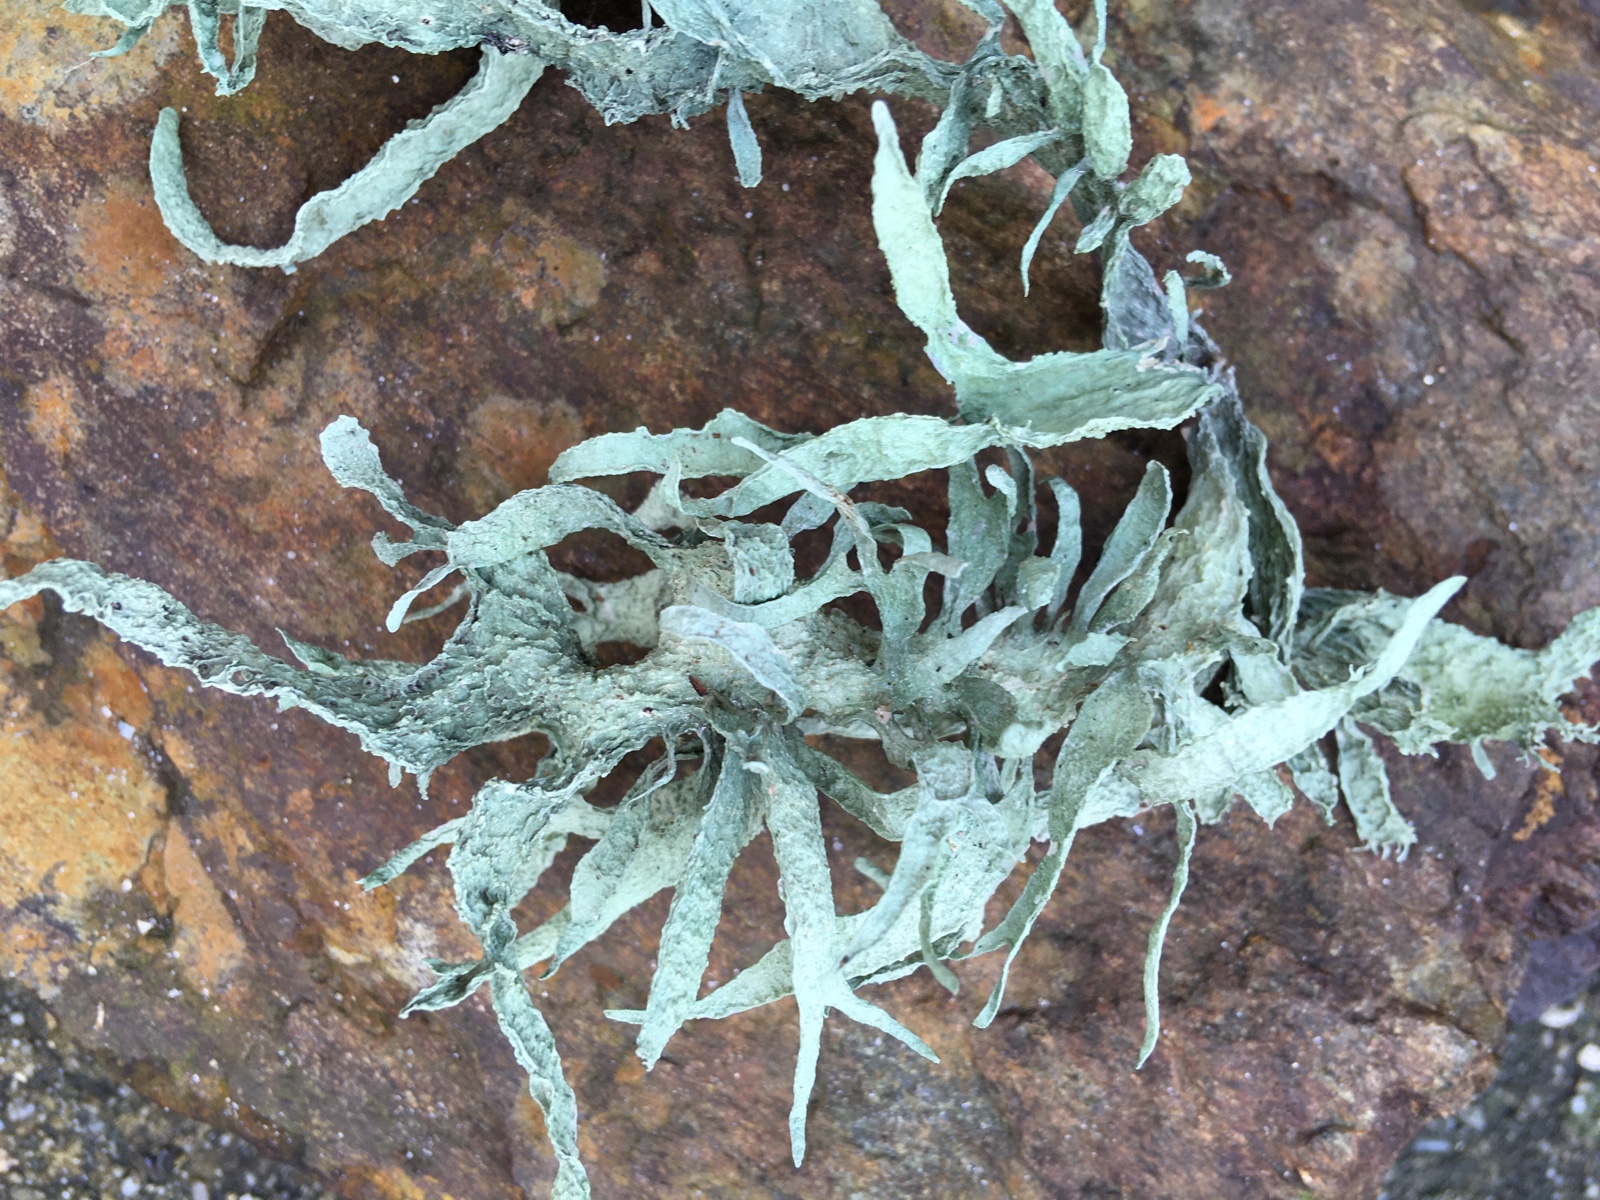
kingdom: Fungi
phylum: Ascomycota
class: Lecanoromycetes
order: Lecanorales
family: Ramalinaceae
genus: Ramalina
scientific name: Ramalina fraxinea
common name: stor grenlav
